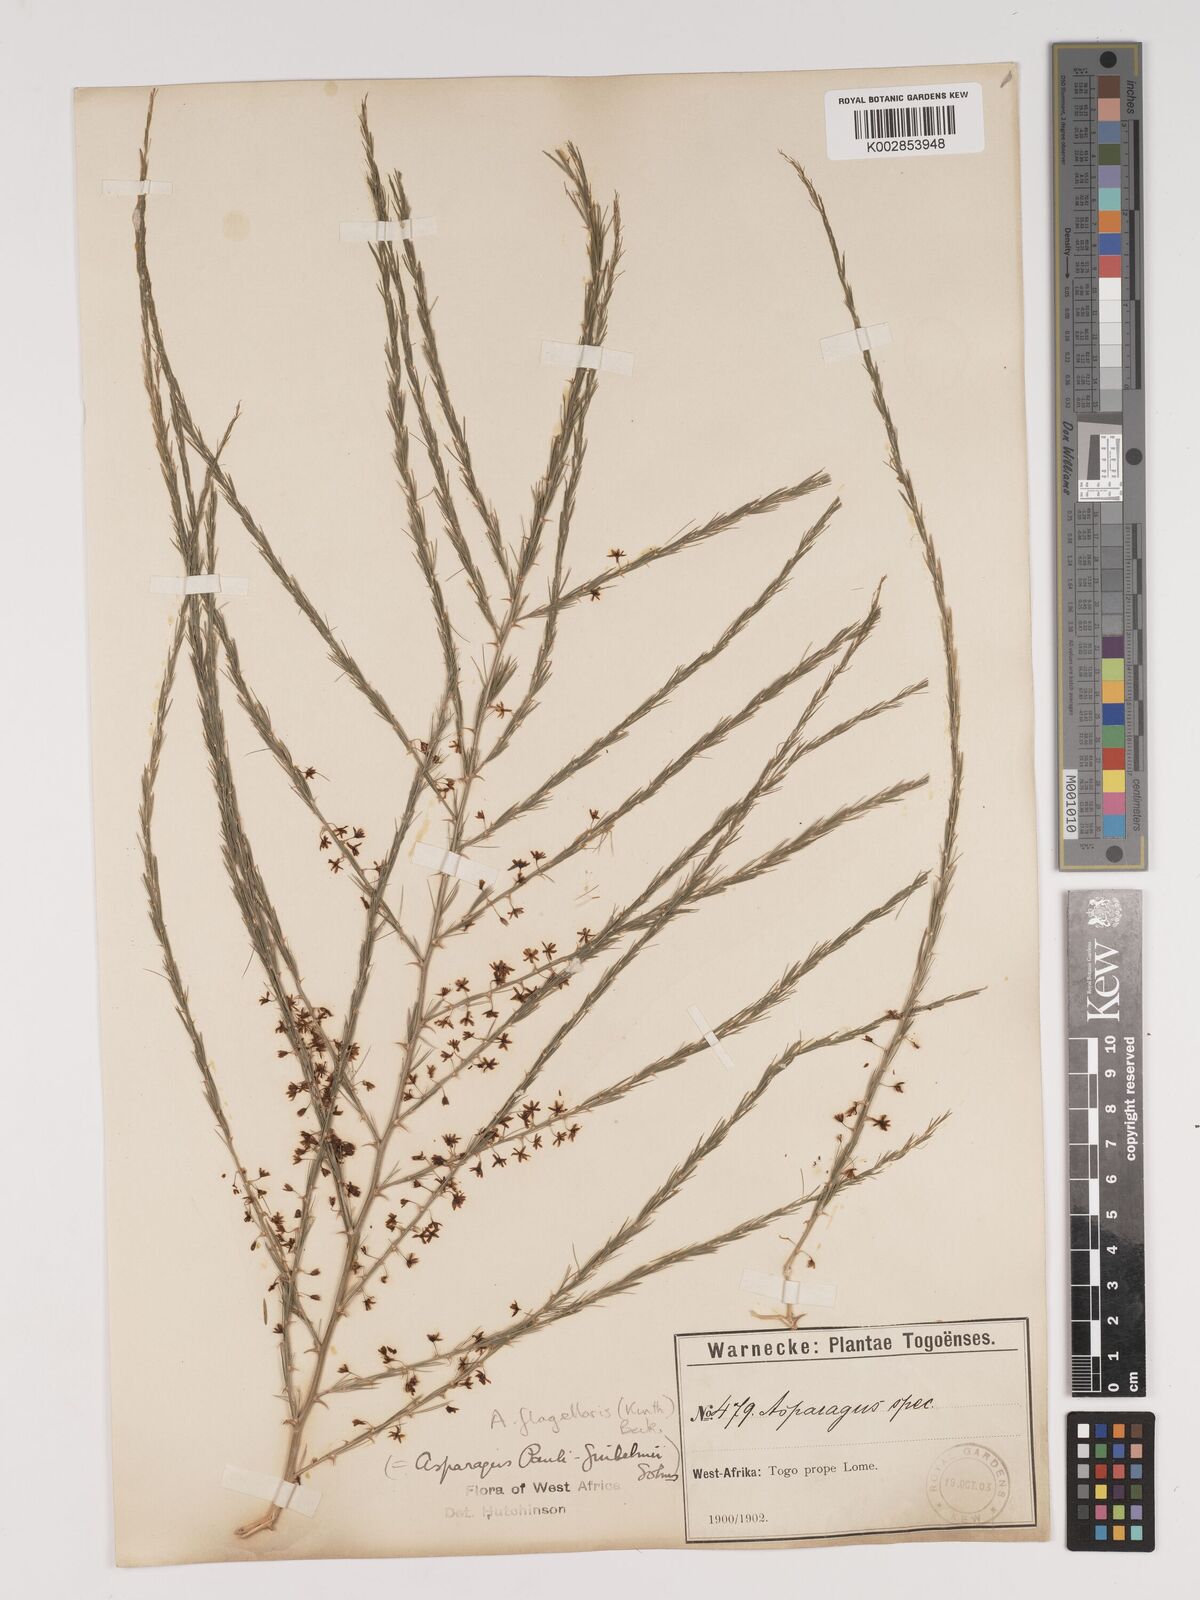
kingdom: Plantae
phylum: Tracheophyta
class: Liliopsida
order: Asparagales
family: Asparagaceae
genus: Asparagus
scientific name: Asparagus flagellaris
